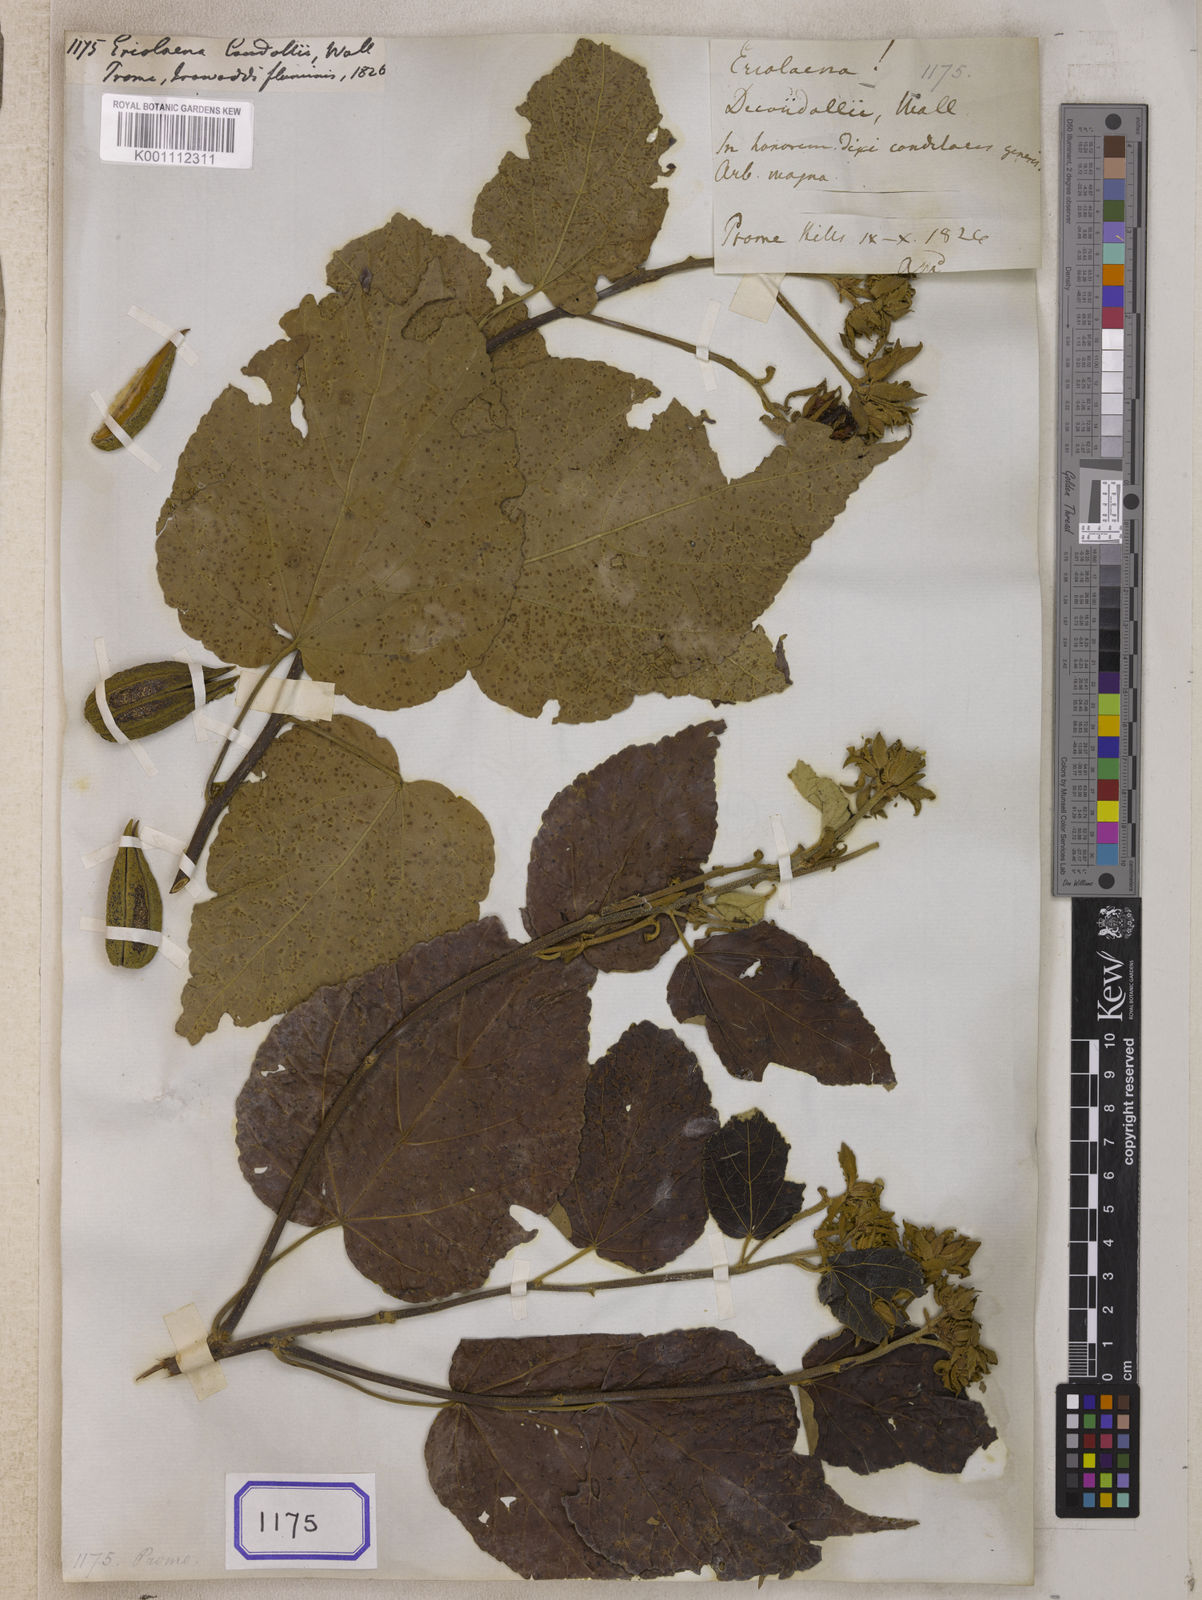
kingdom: Plantae
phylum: Tracheophyta
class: Magnoliopsida
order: Malvales
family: Malvaceae
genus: Eriolaena
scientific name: Eriolaena candollei
